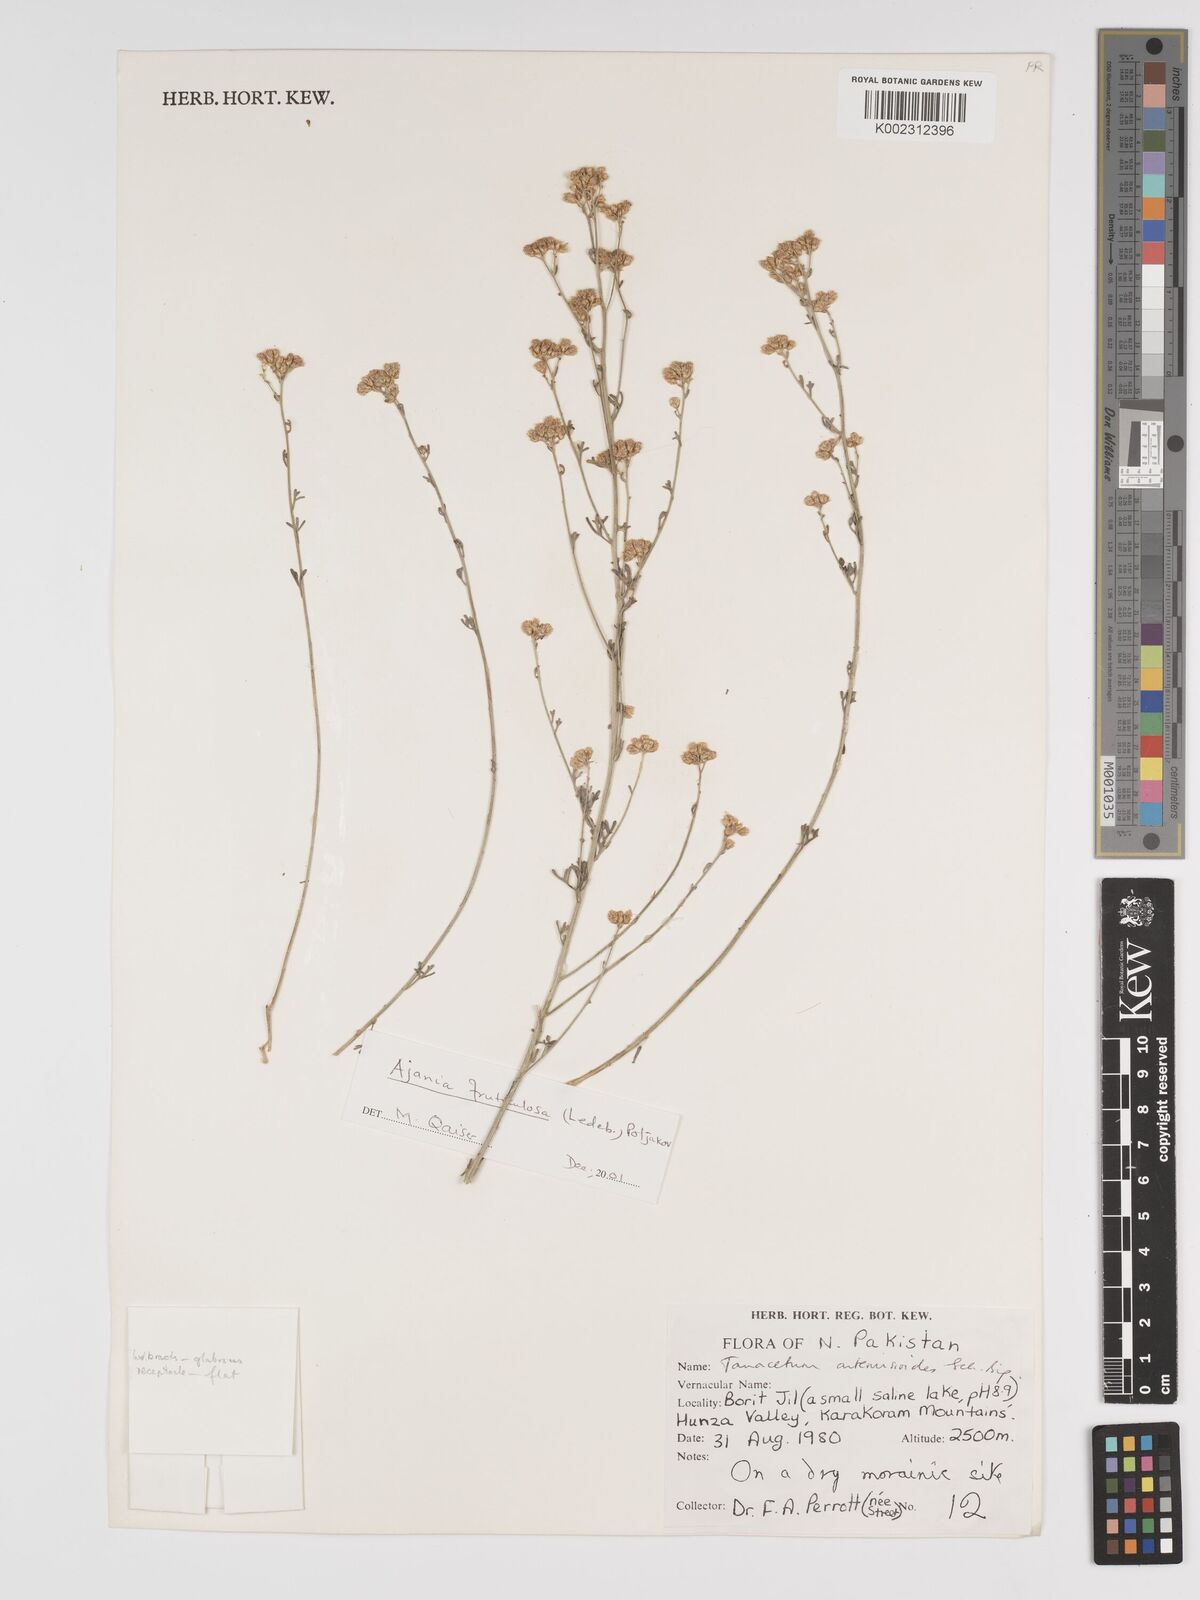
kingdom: Plantae
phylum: Tracheophyta
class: Magnoliopsida
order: Asterales
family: Asteraceae
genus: Tanacetum
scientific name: Tanacetum artemisioides
